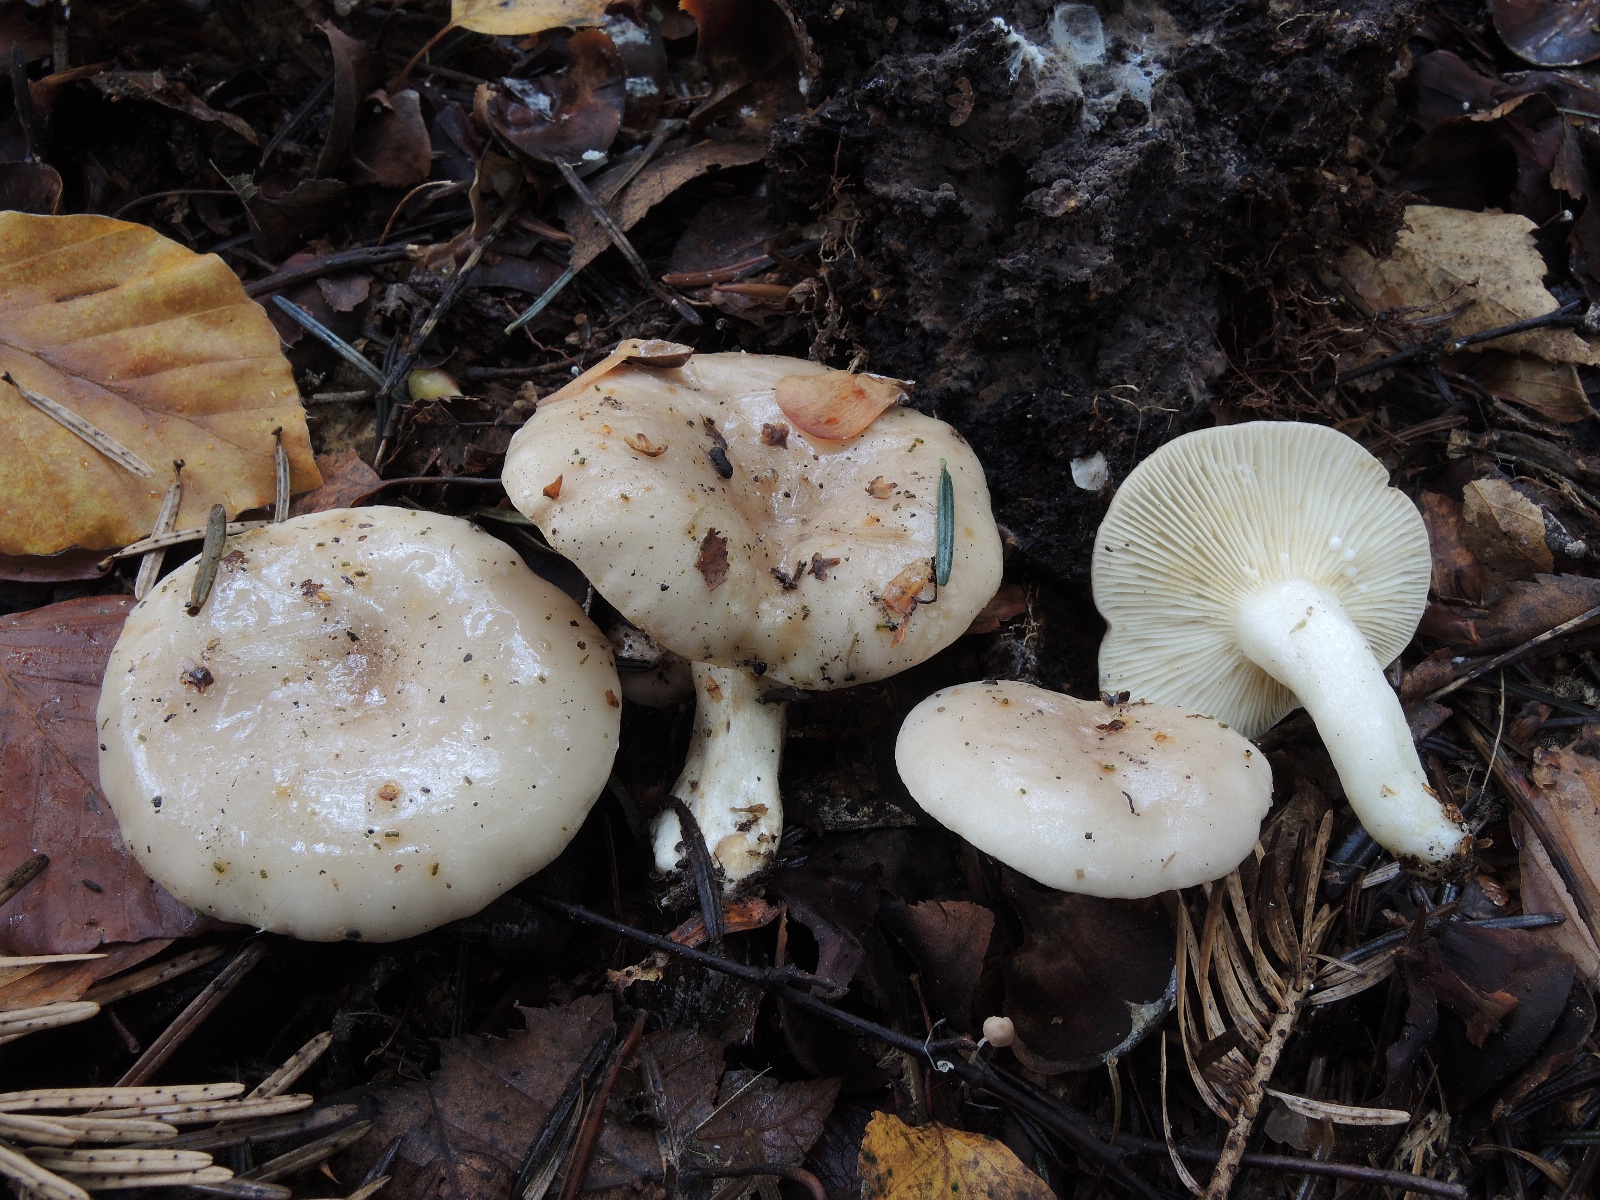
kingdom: Fungi
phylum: Basidiomycota
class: Agaricomycetes
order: Russulales
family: Russulaceae
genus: Lactarius
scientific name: Lactarius albocarneus
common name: ædelgran-mælkehat
